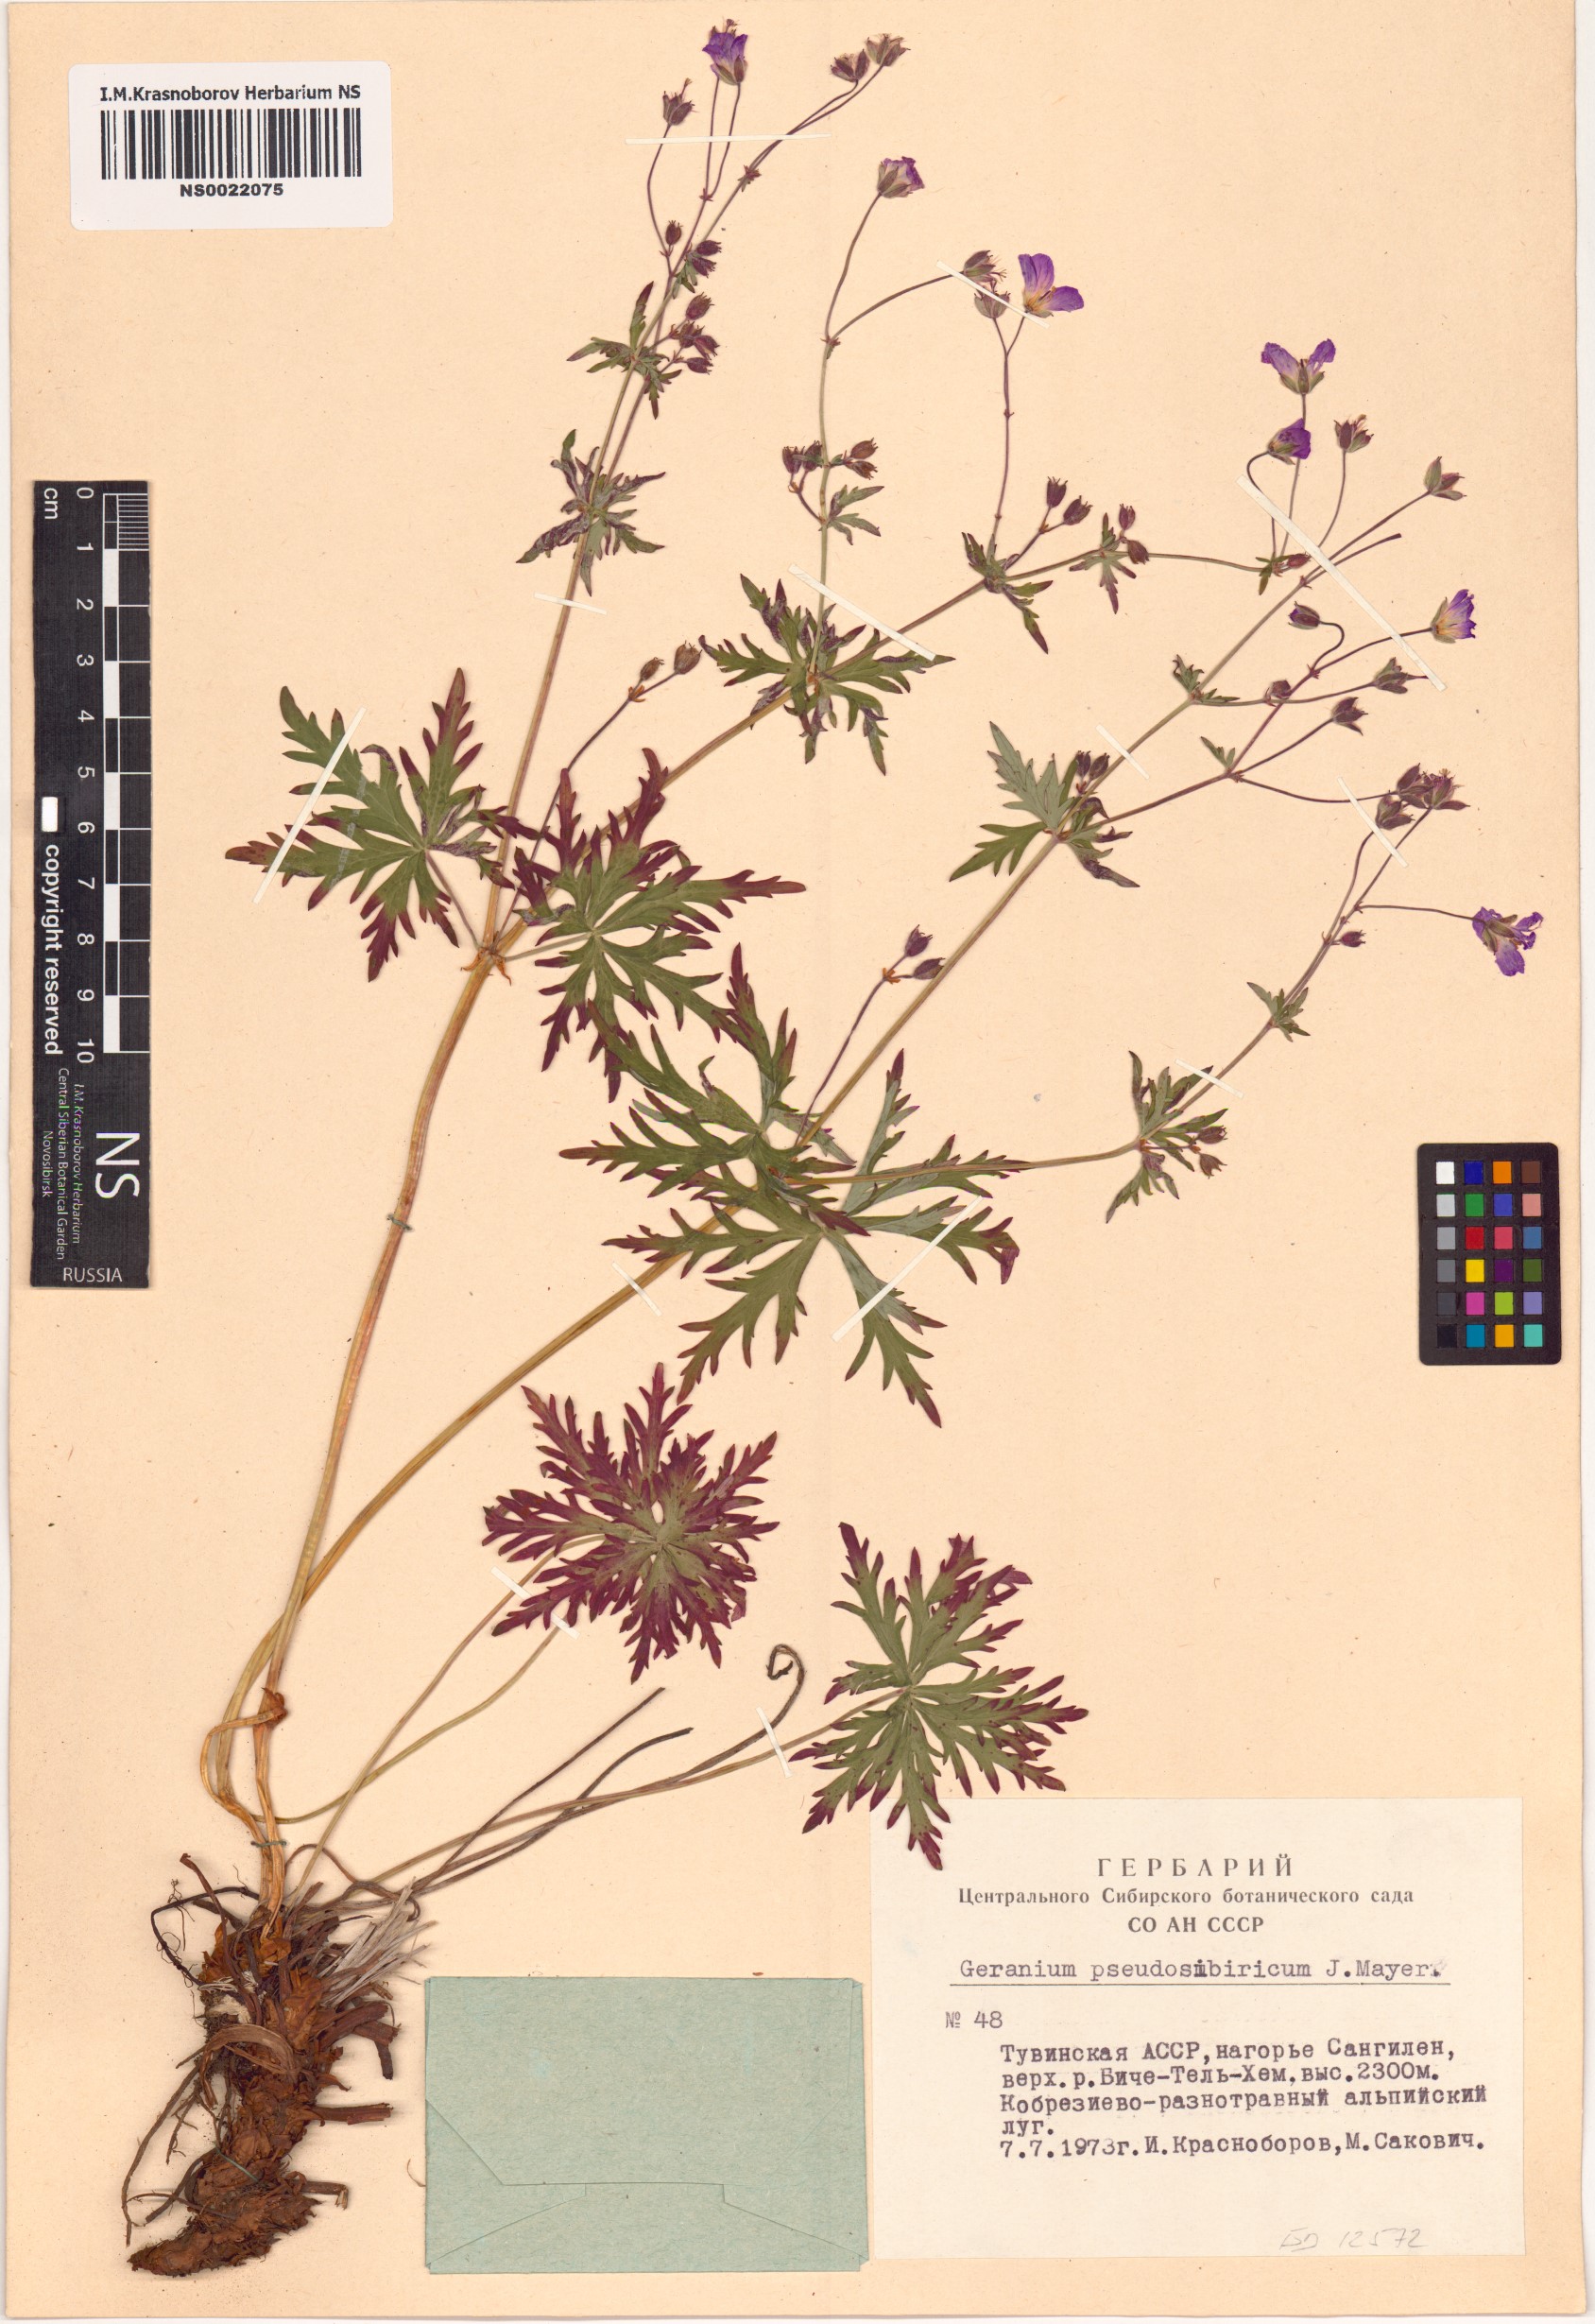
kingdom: Plantae
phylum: Tracheophyta
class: Magnoliopsida
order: Geraniales
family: Geraniaceae
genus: Geranium
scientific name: Geranium pseudosibiricum
